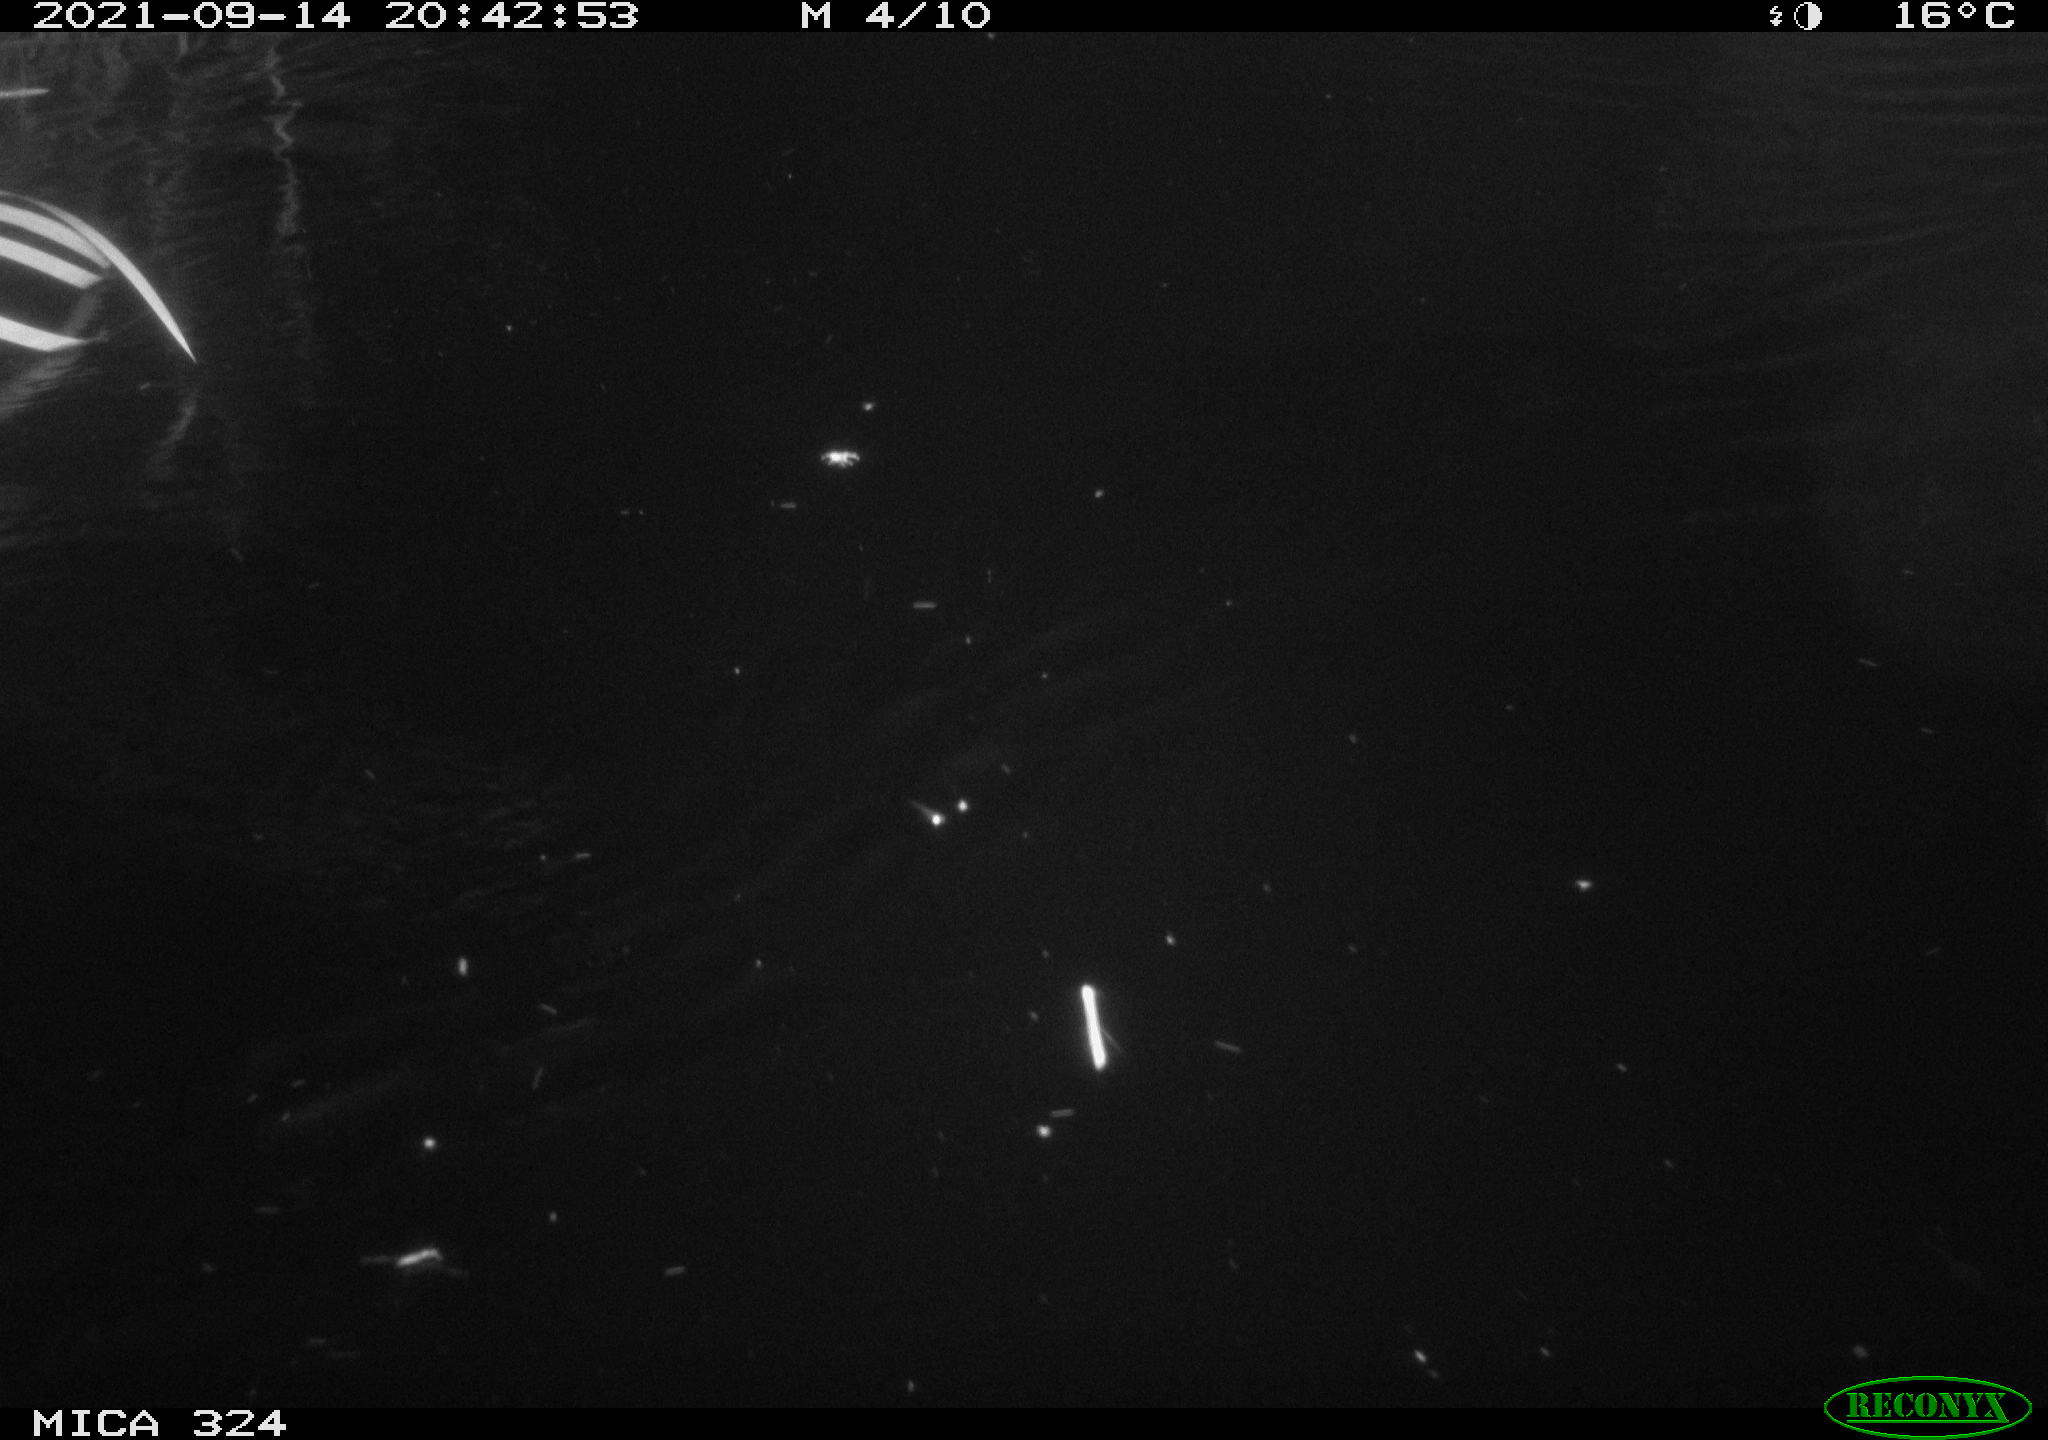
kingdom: Animalia
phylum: Chordata
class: Mammalia
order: Rodentia
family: Cricetidae
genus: Ondatra
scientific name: Ondatra zibethicus
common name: Muskrat
